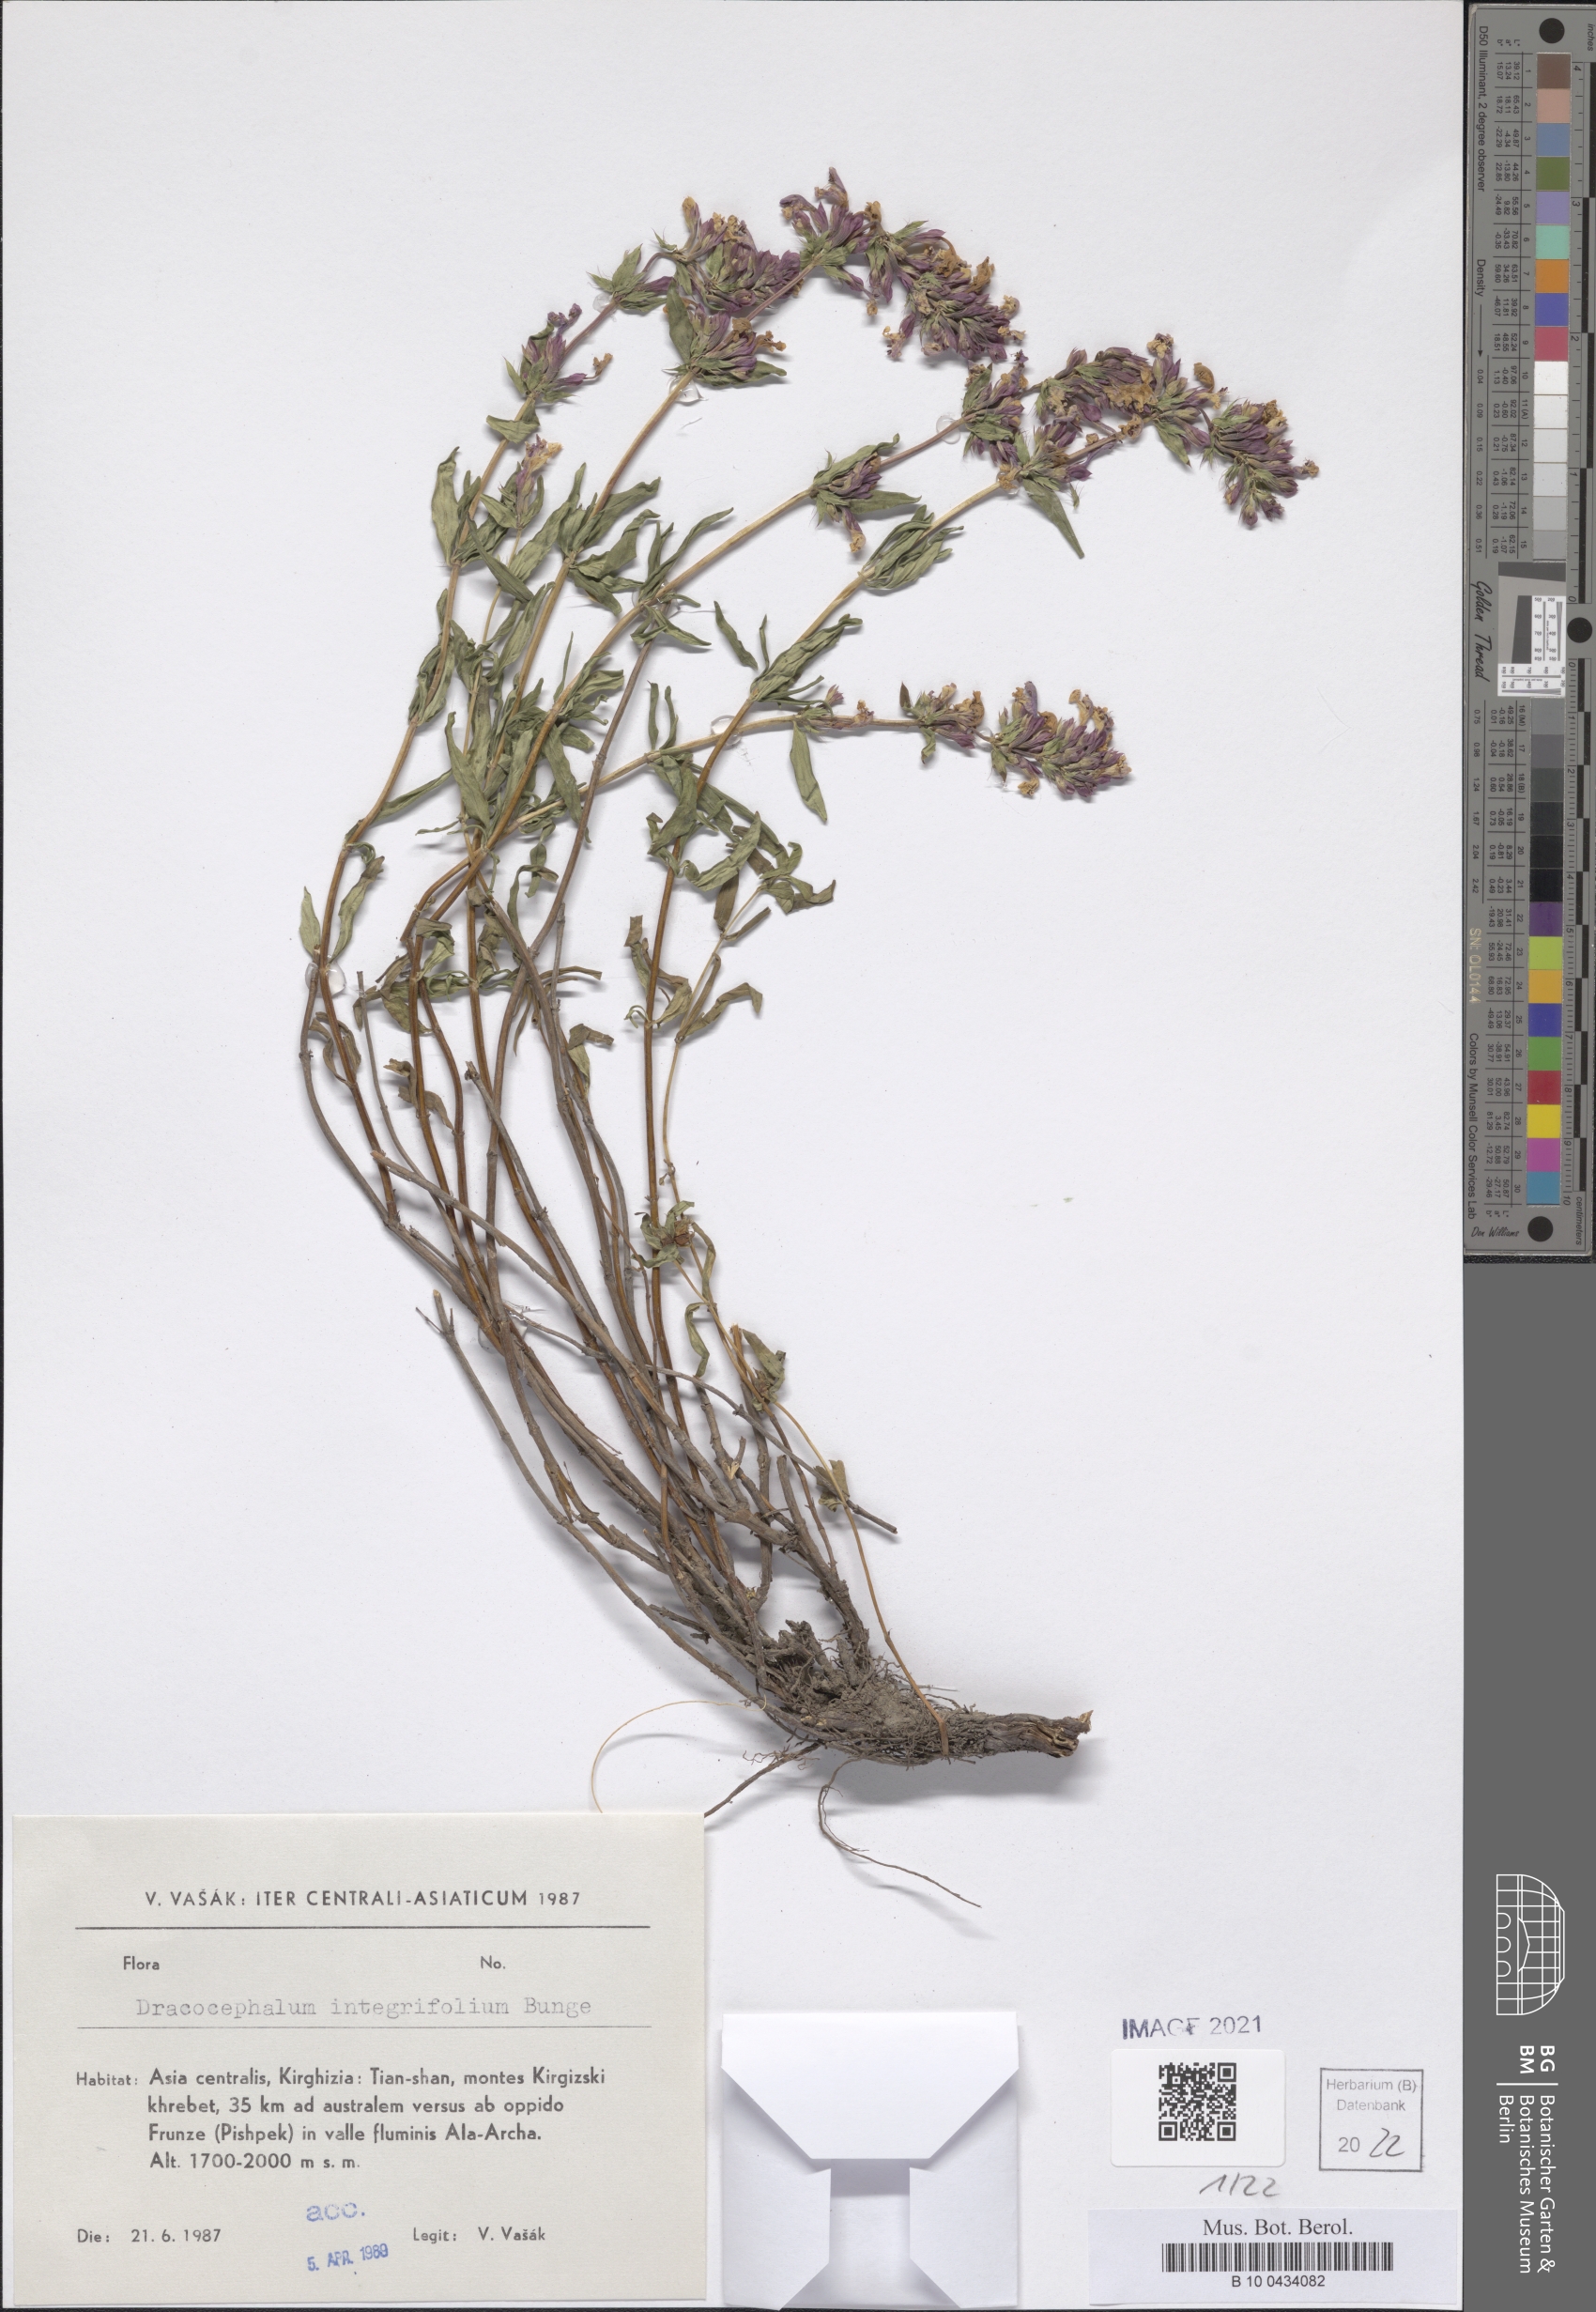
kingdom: Plantae
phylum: Tracheophyta
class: Magnoliopsida
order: Lamiales
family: Lamiaceae
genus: Dracocephalum
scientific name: Dracocephalum integrifolium
